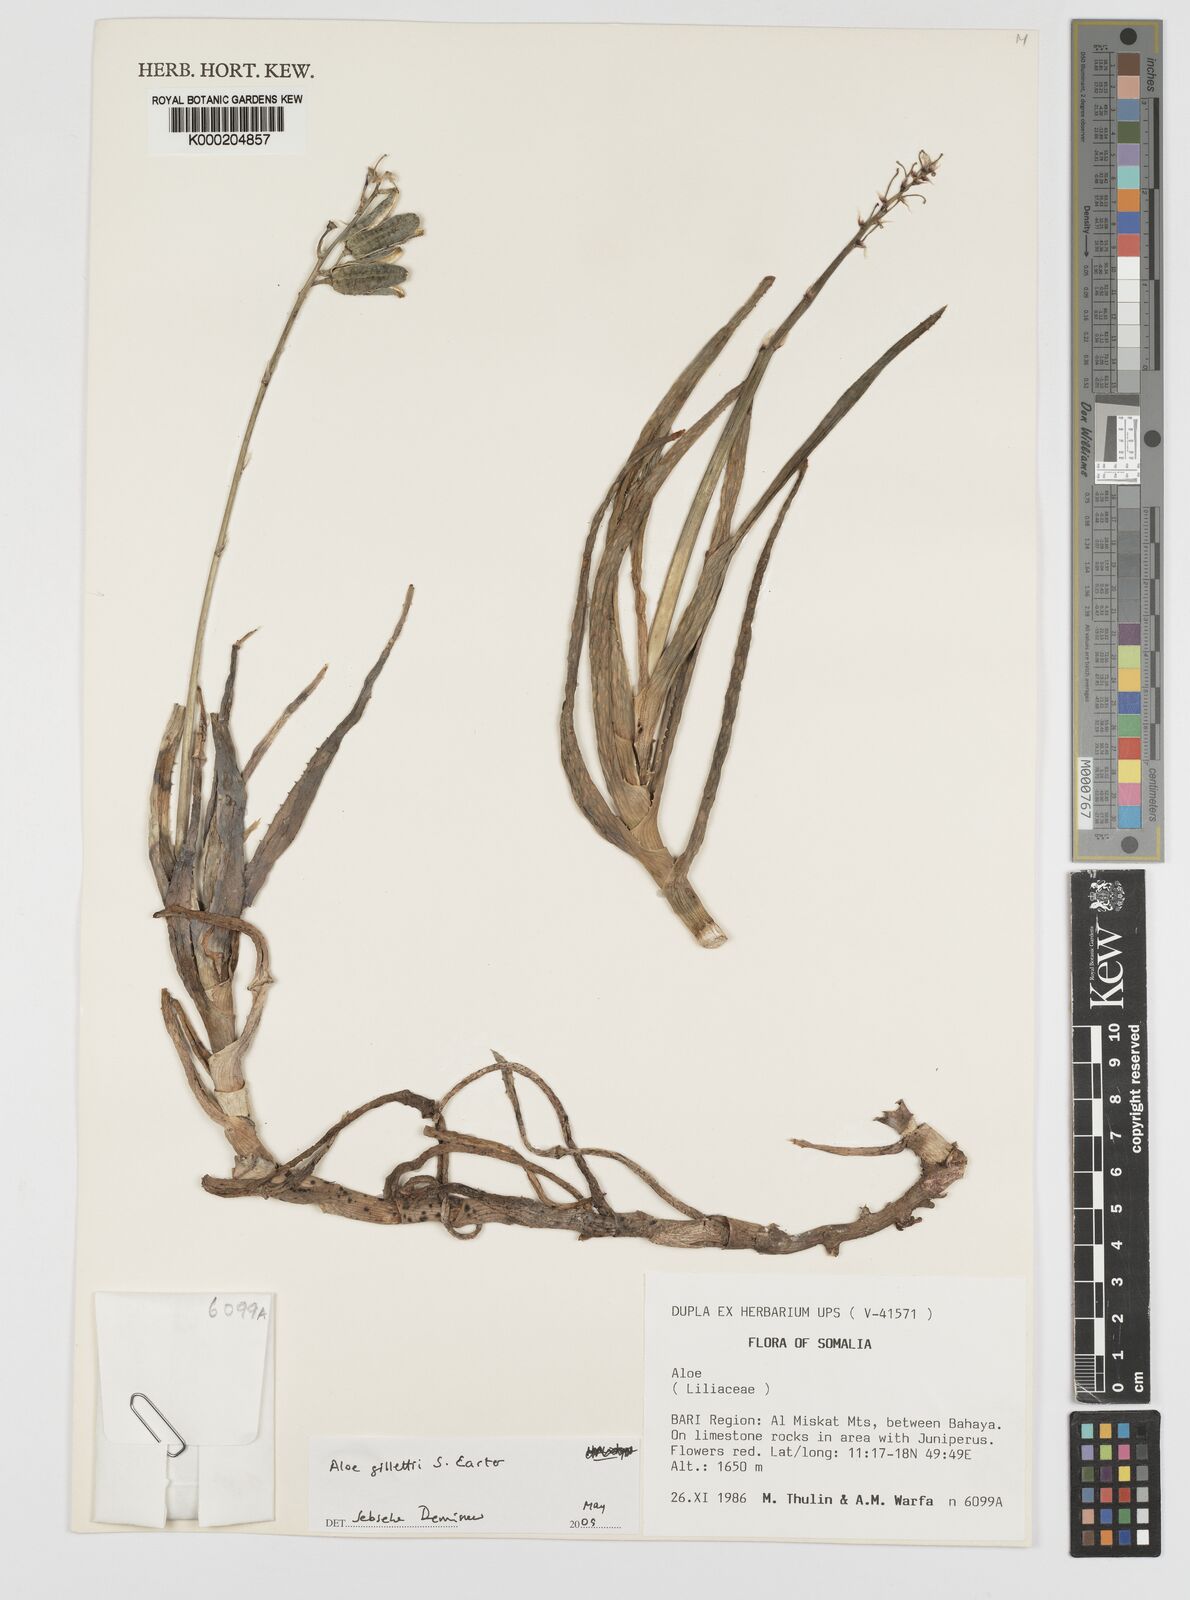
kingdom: Plantae
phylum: Tracheophyta
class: Liliopsida
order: Asparagales
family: Asphodelaceae
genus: Aloe
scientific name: Aloe gillettii
